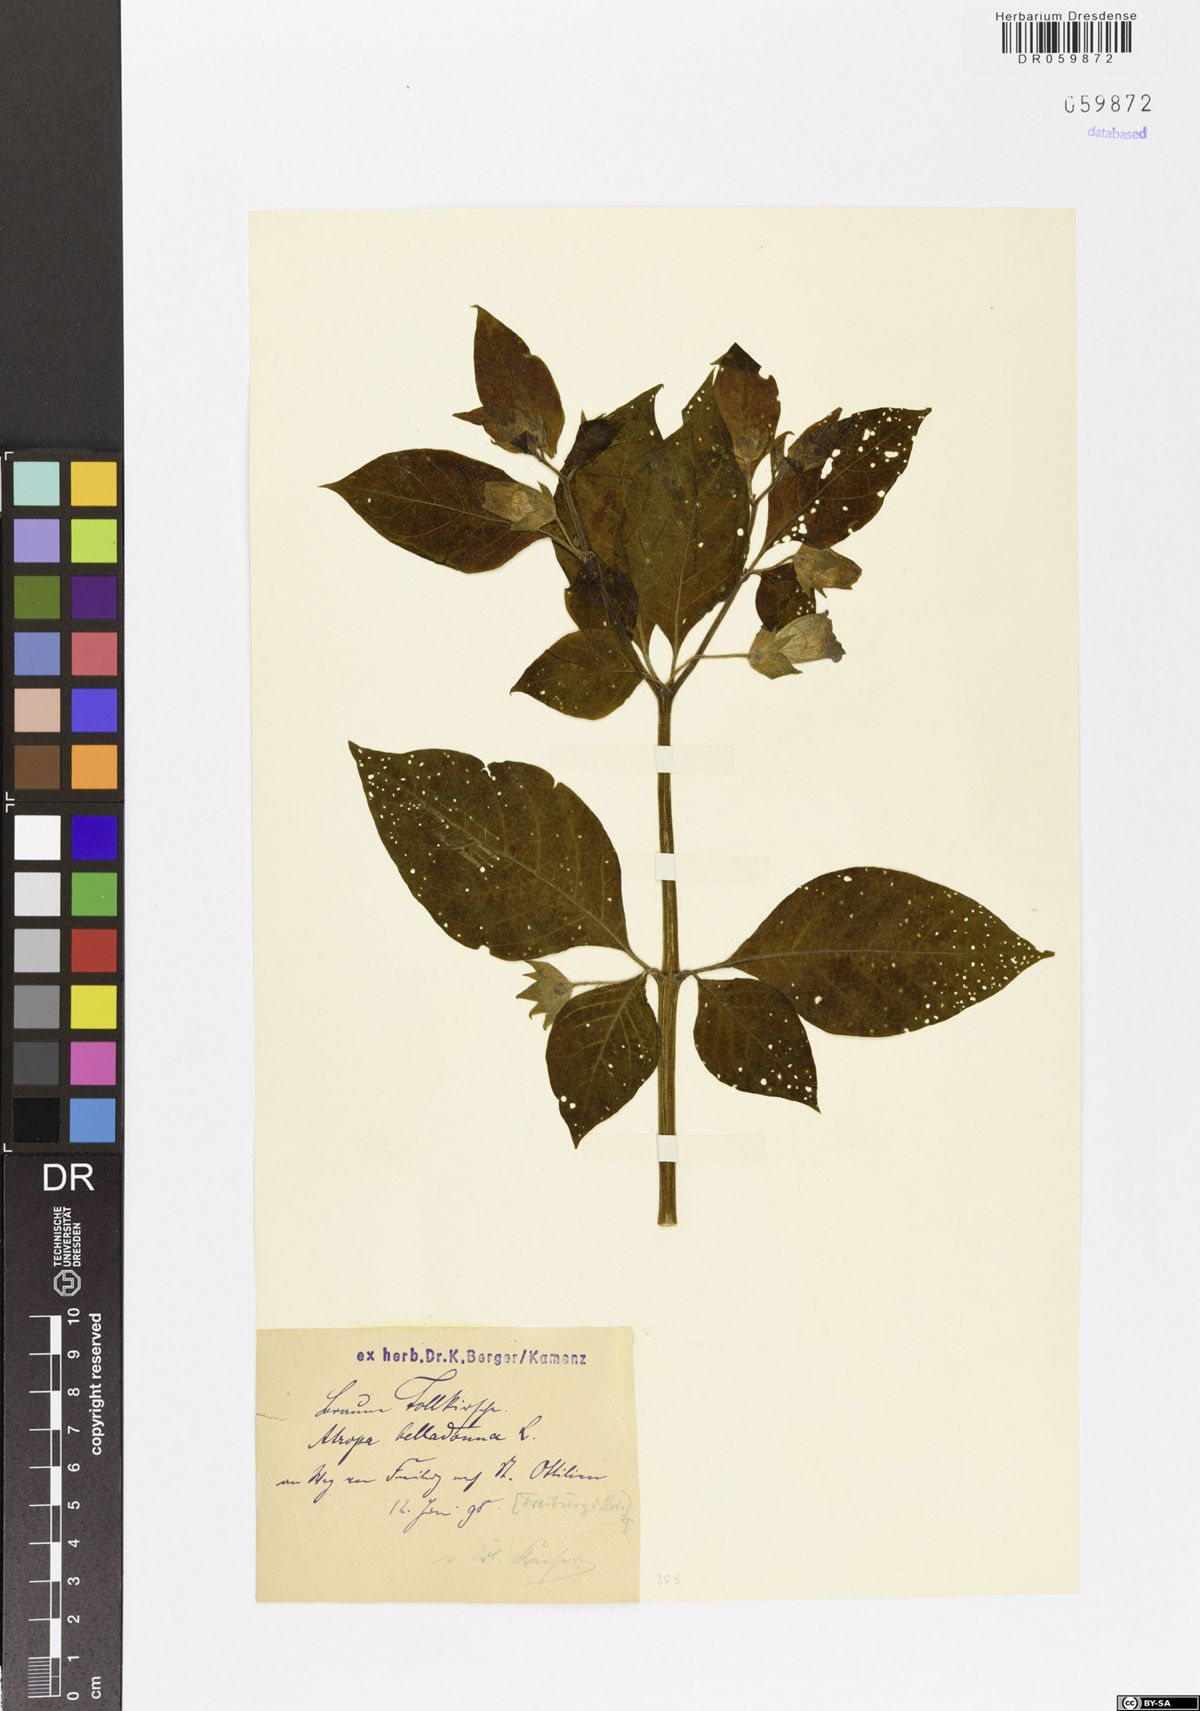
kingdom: Plantae
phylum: Tracheophyta
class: Magnoliopsida
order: Solanales
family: Solanaceae
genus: Atropa
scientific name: Atropa belladonna
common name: Deadly nightshade
